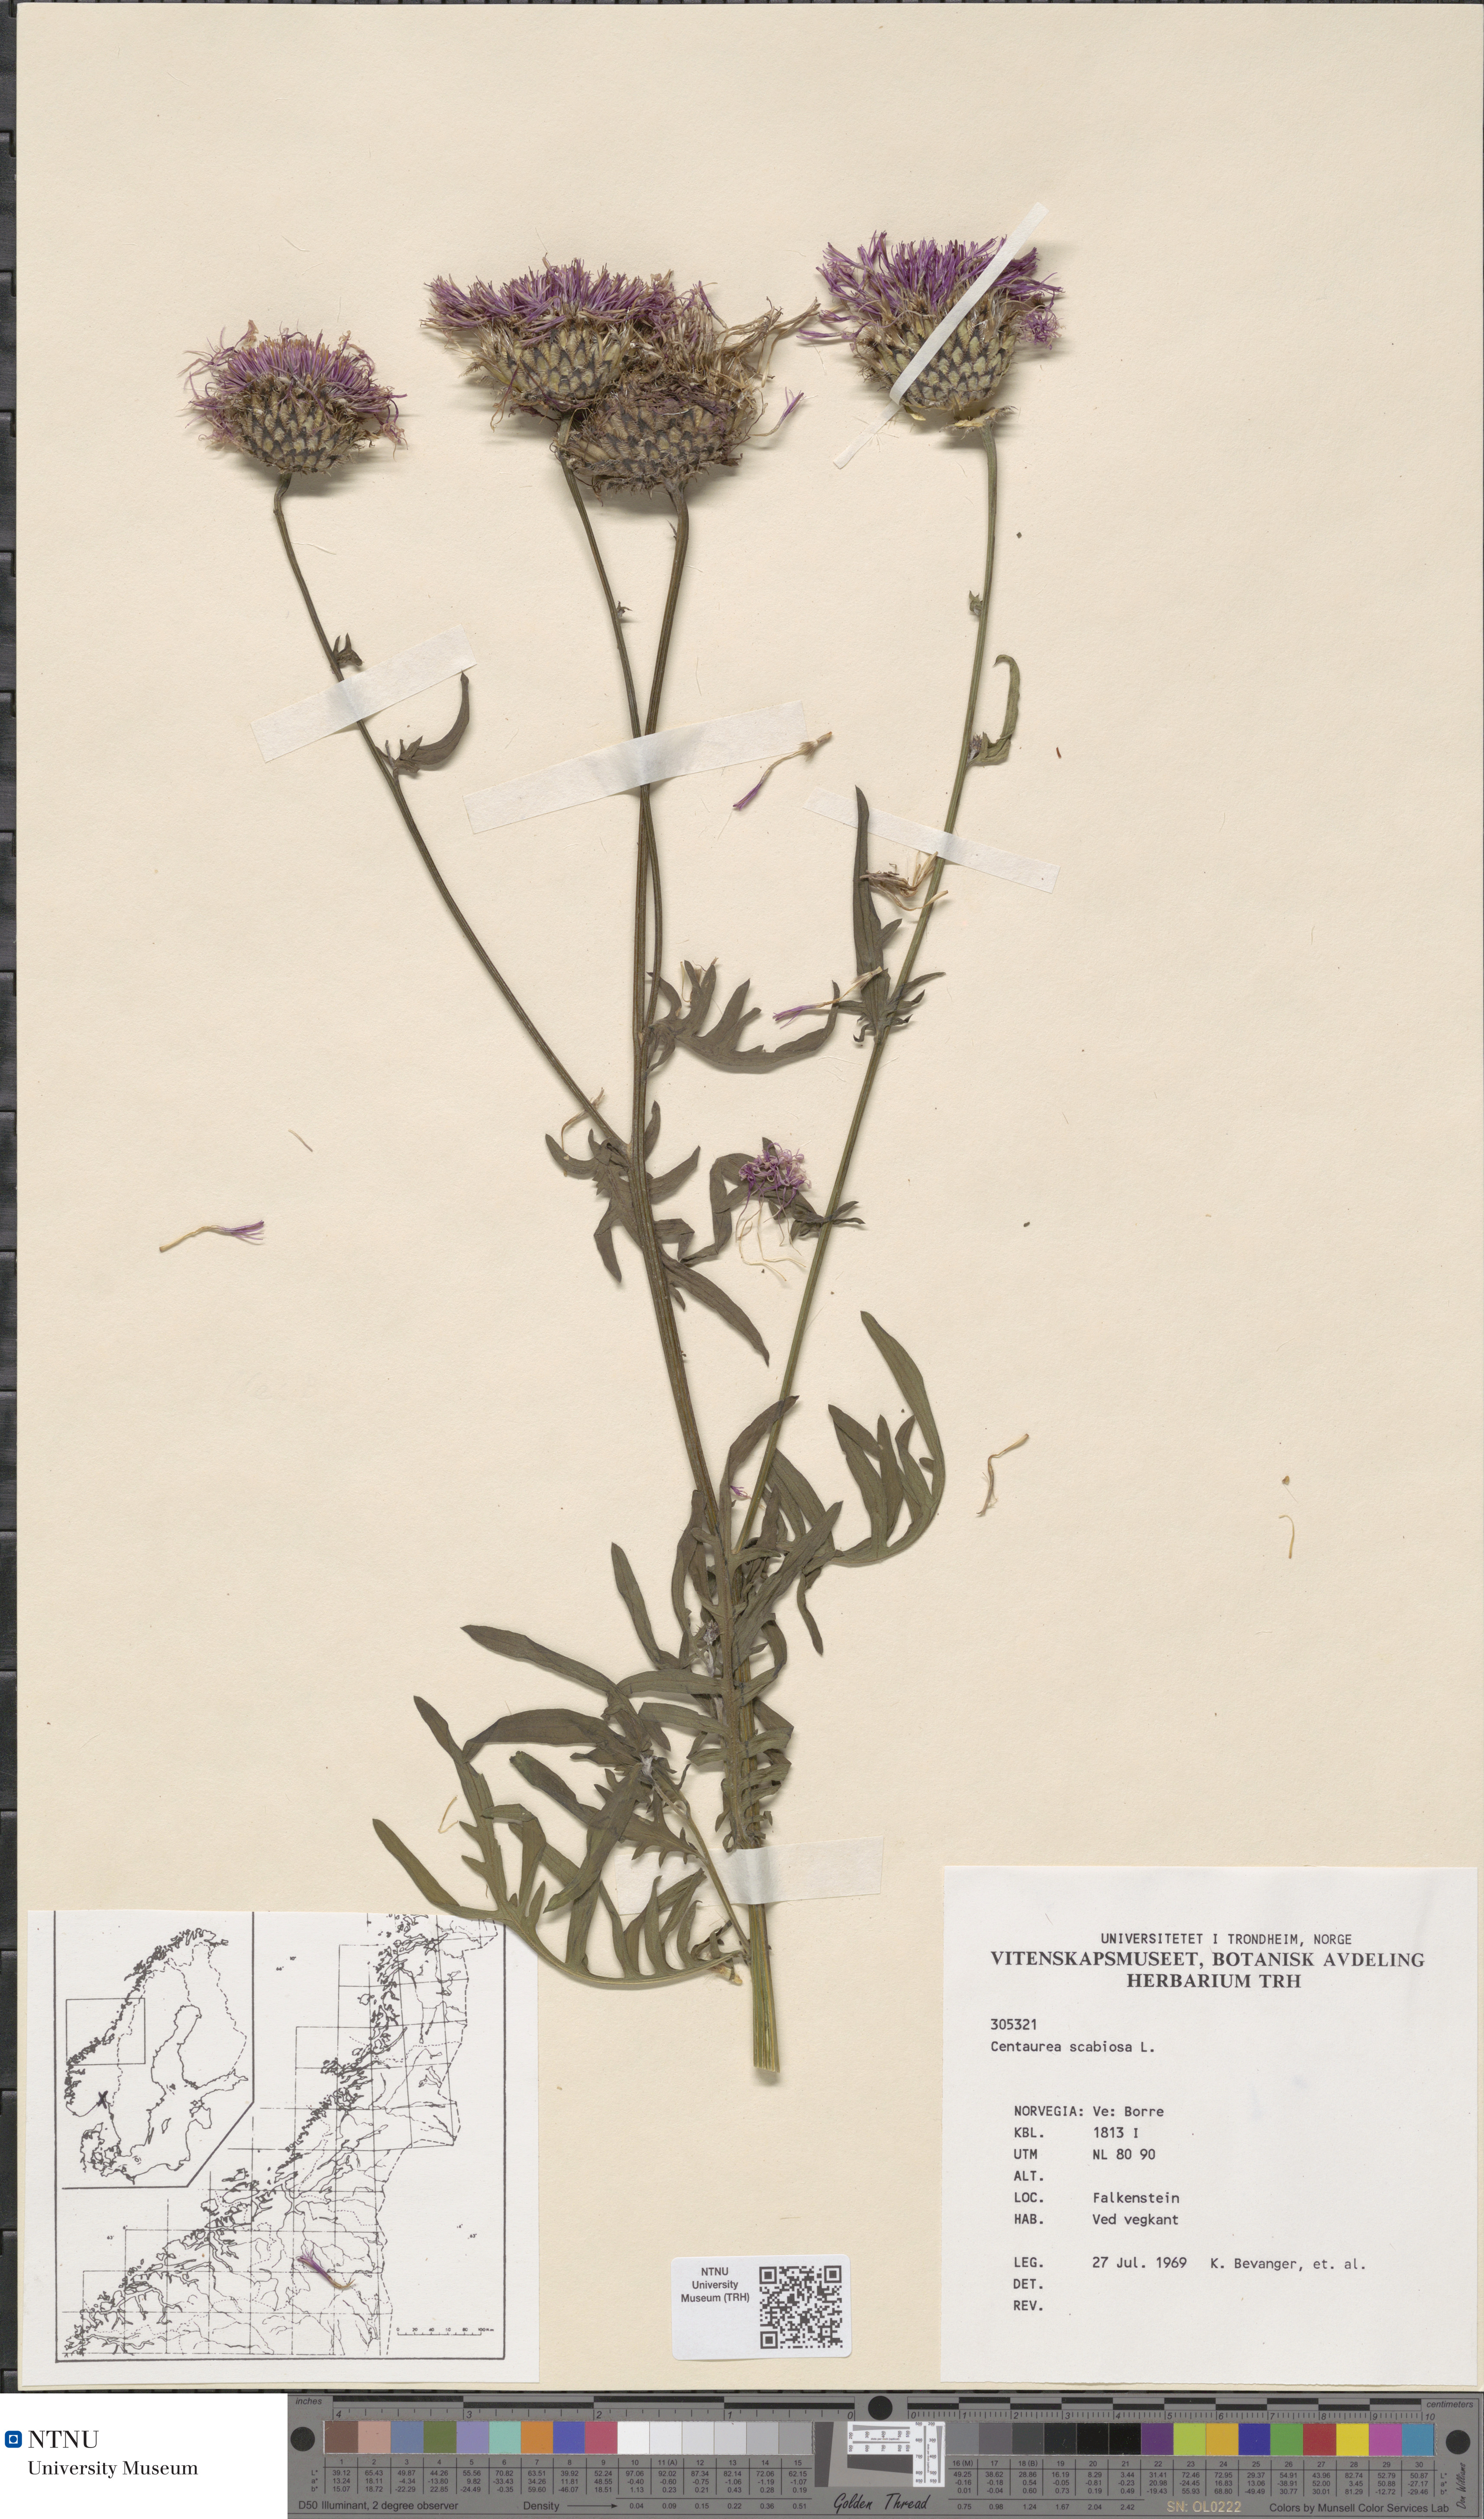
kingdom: Plantae
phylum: Tracheophyta
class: Magnoliopsida
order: Asterales
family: Asteraceae
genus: Centaurea
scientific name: Centaurea scabiosa
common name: Greater knapweed
